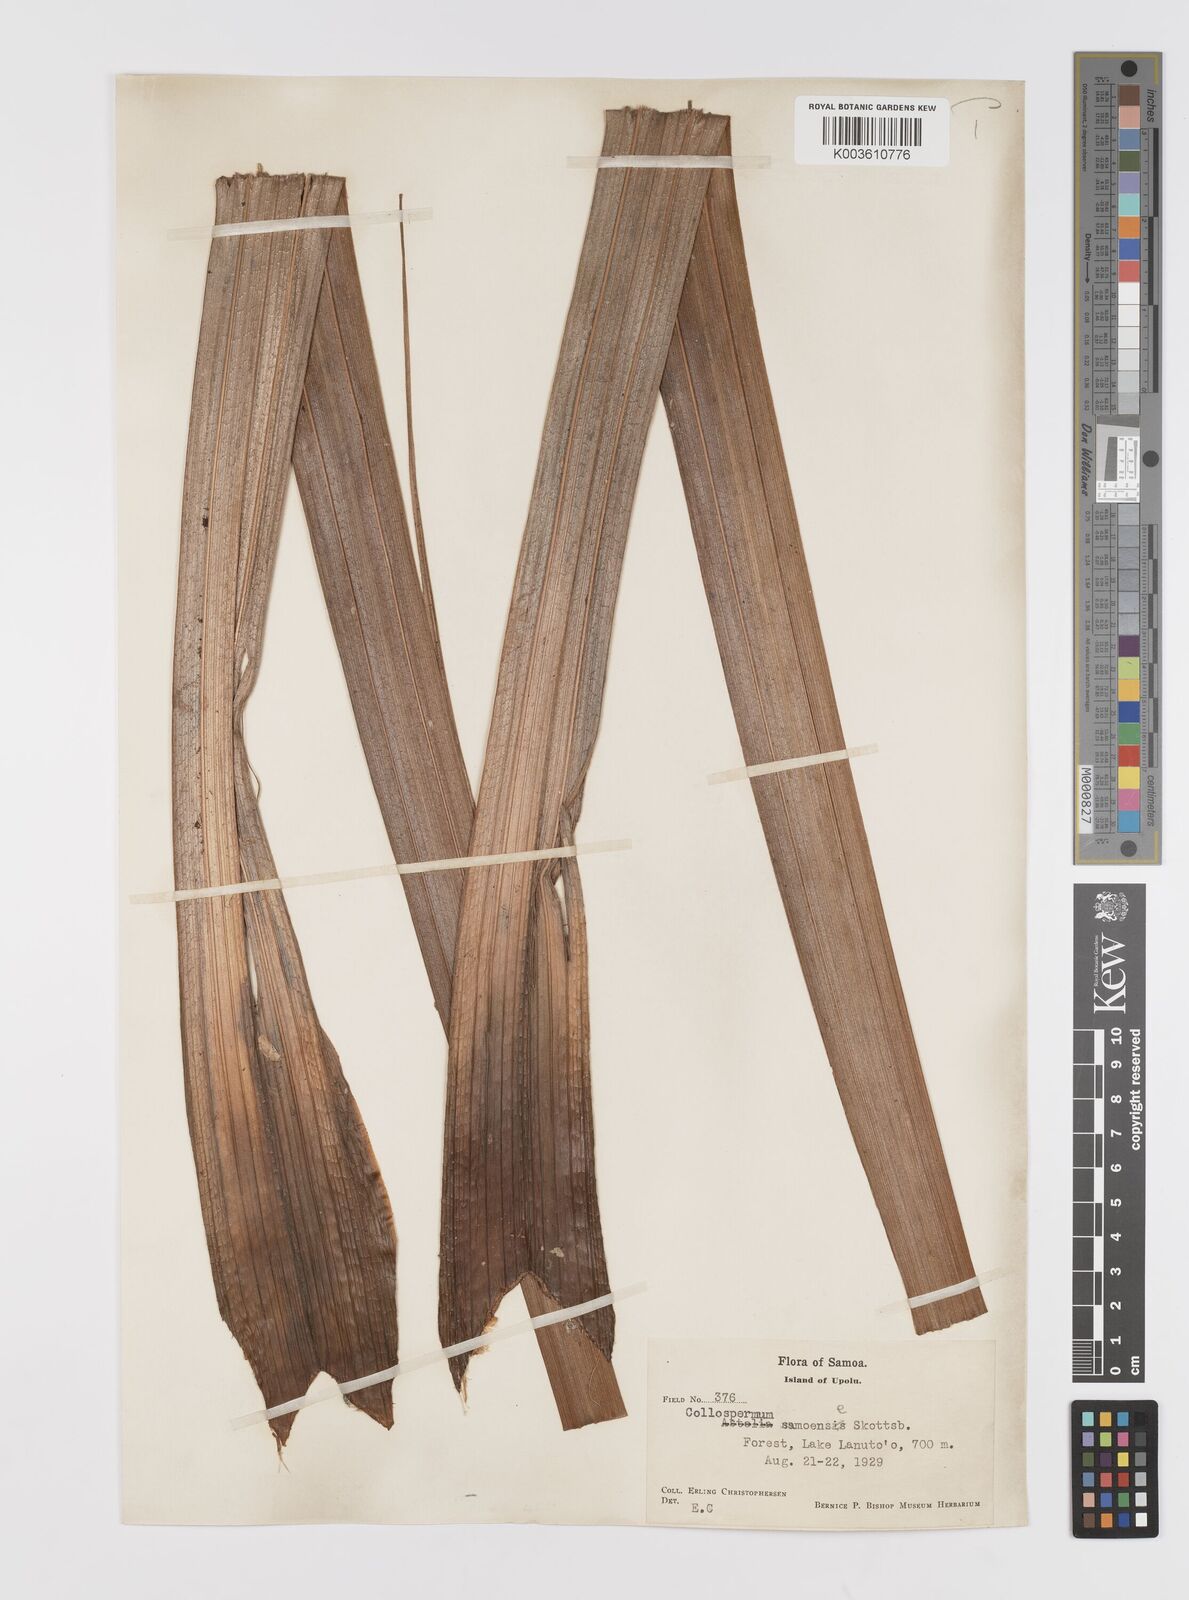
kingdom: Plantae
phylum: Tracheophyta
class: Liliopsida
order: Asparagales
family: Asteliaceae
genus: Astelia
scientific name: Astelia samoense
